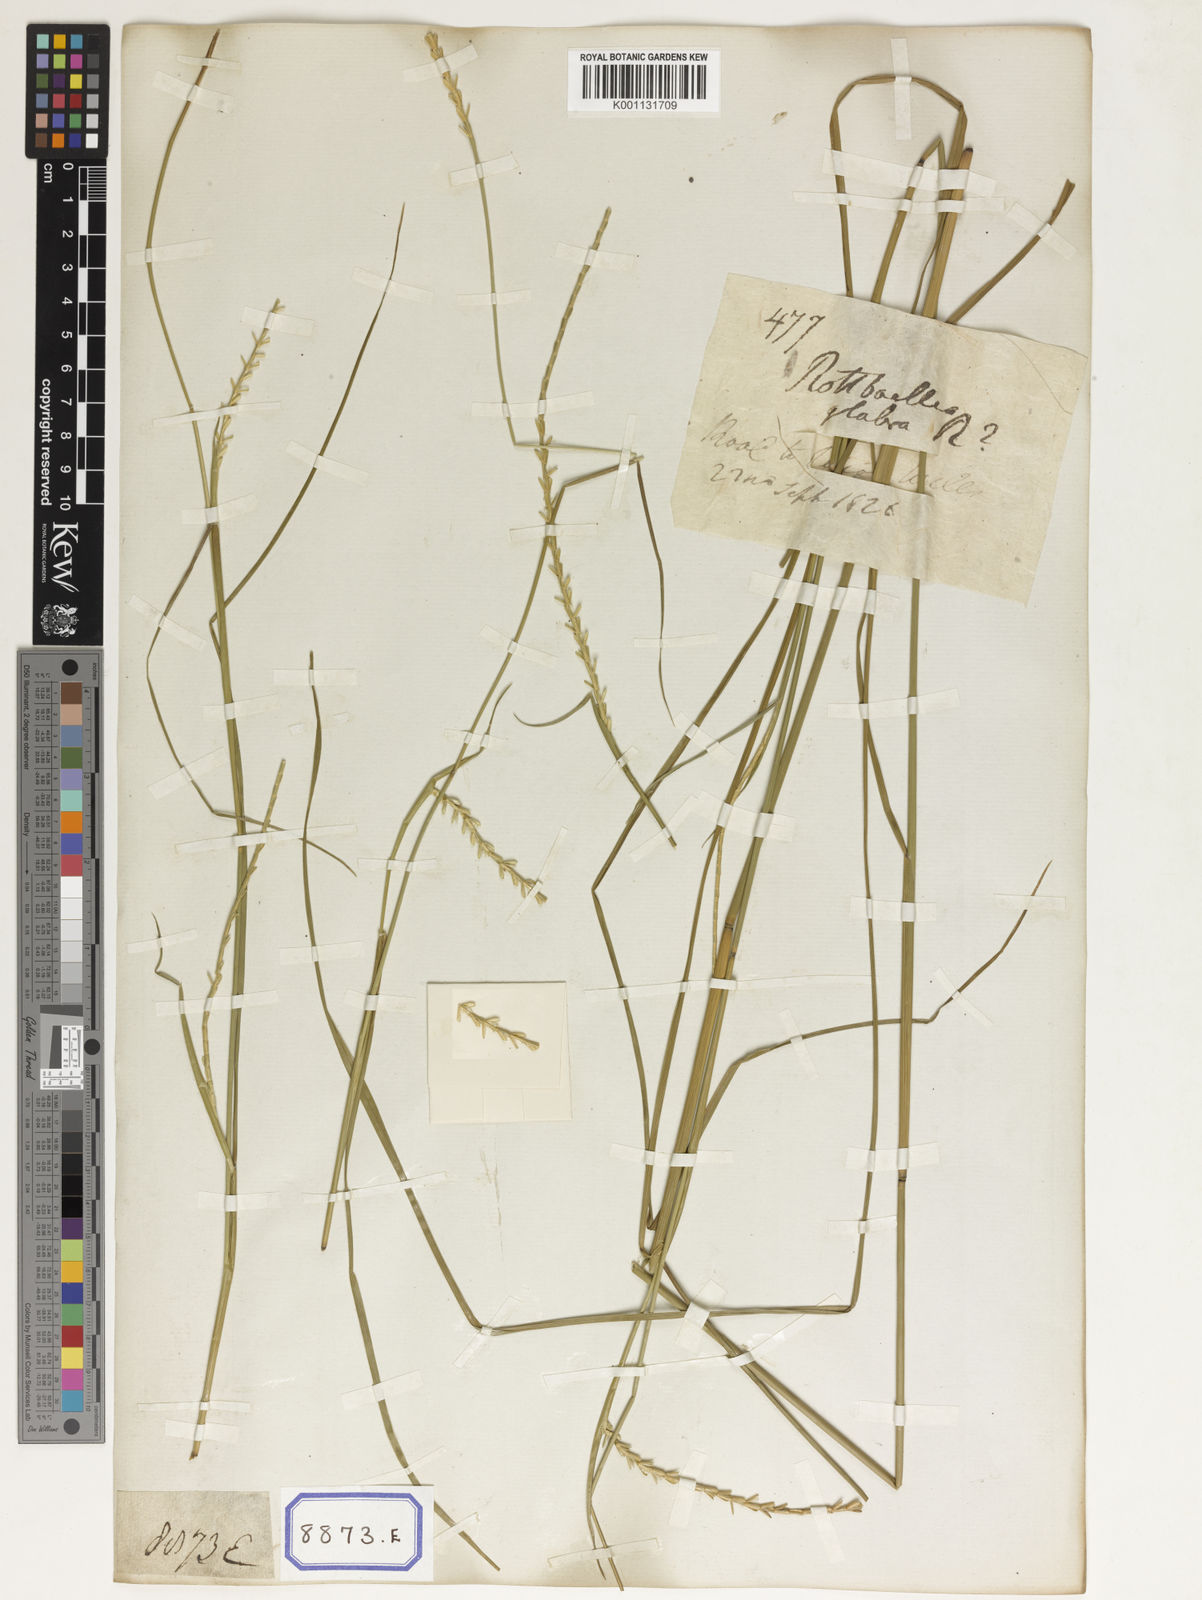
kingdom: Plantae
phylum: Tracheophyta
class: Liliopsida
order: Poales
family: Poaceae
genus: Mnesithea
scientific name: Mnesithea laevis
